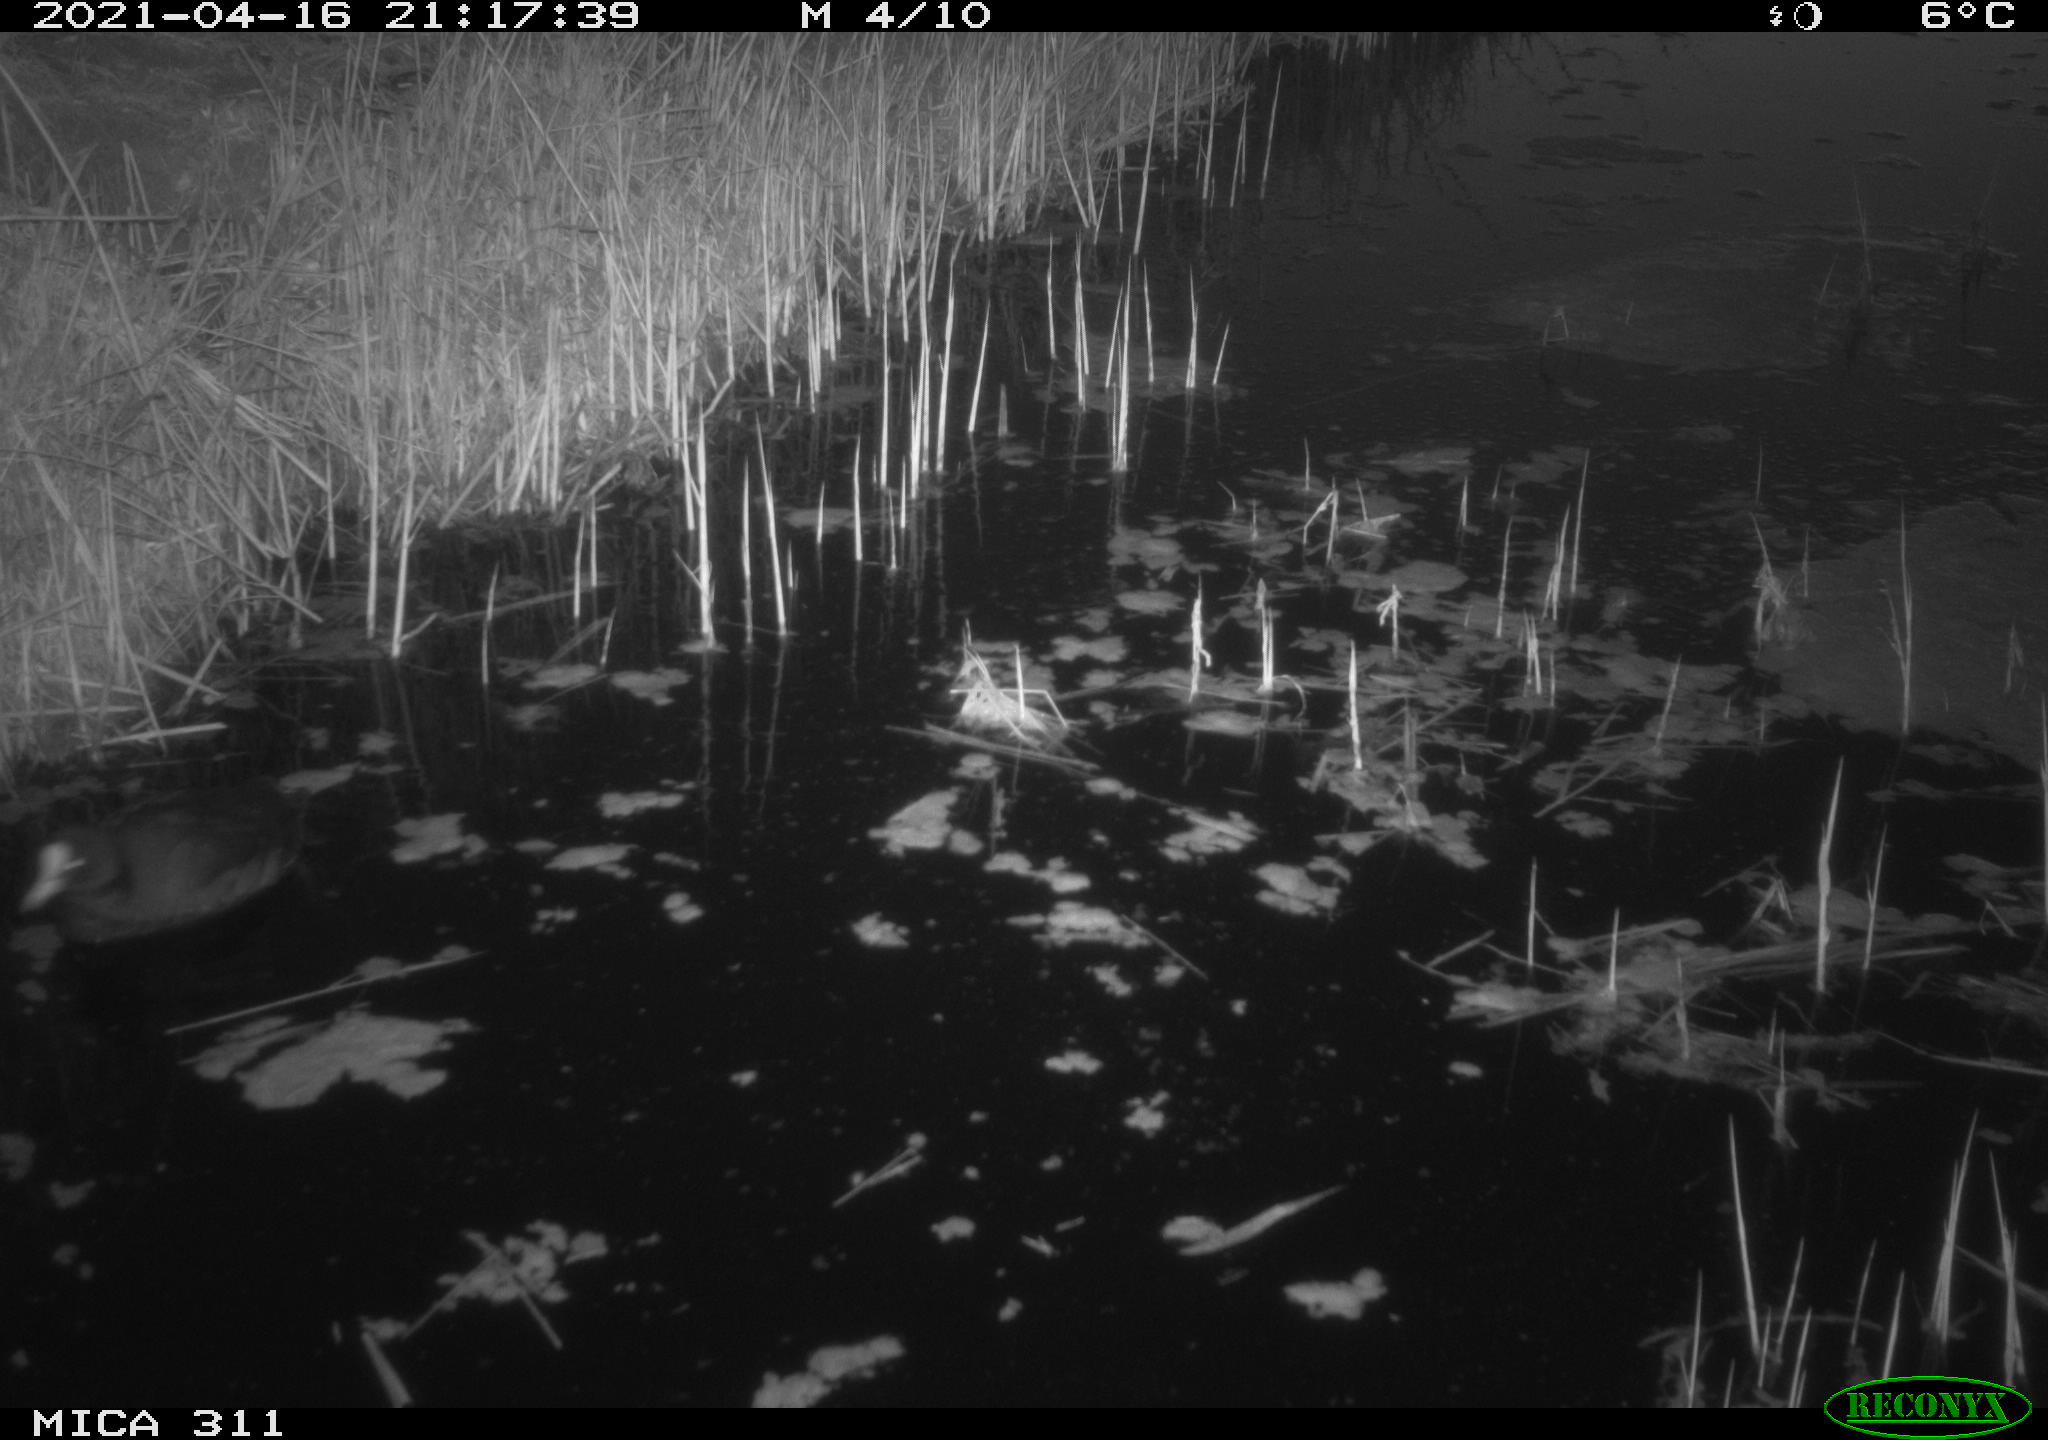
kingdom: Animalia
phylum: Chordata
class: Aves
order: Gruiformes
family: Rallidae
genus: Fulica
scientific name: Fulica atra
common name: Eurasian coot
